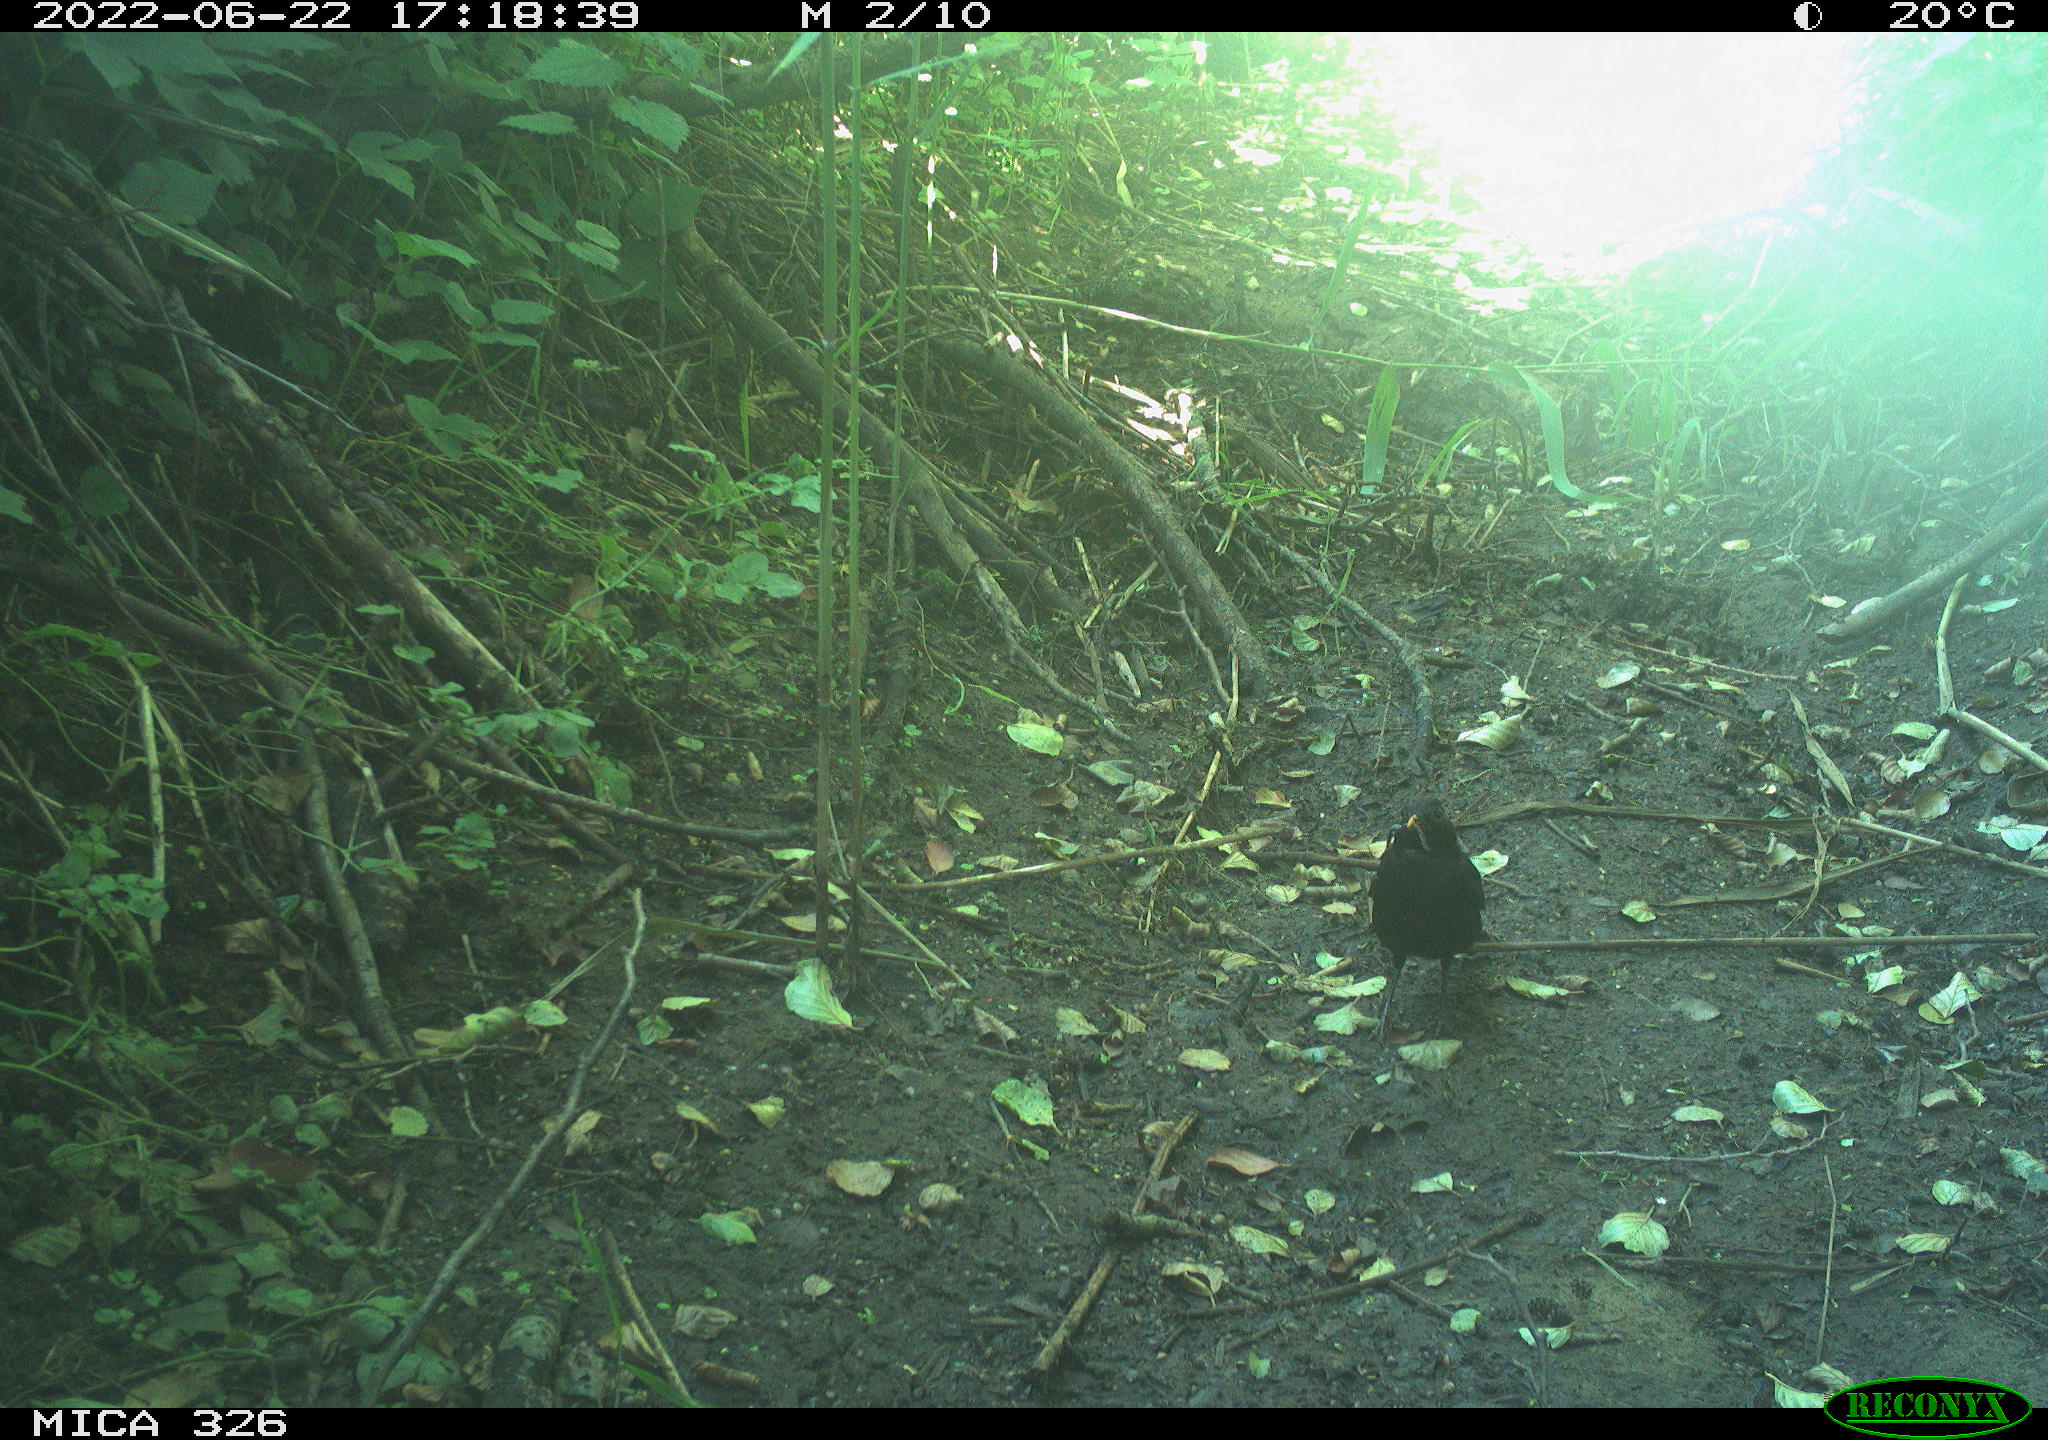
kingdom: Animalia
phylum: Chordata
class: Aves
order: Passeriformes
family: Turdidae
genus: Turdus
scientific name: Turdus merula
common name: Common blackbird
